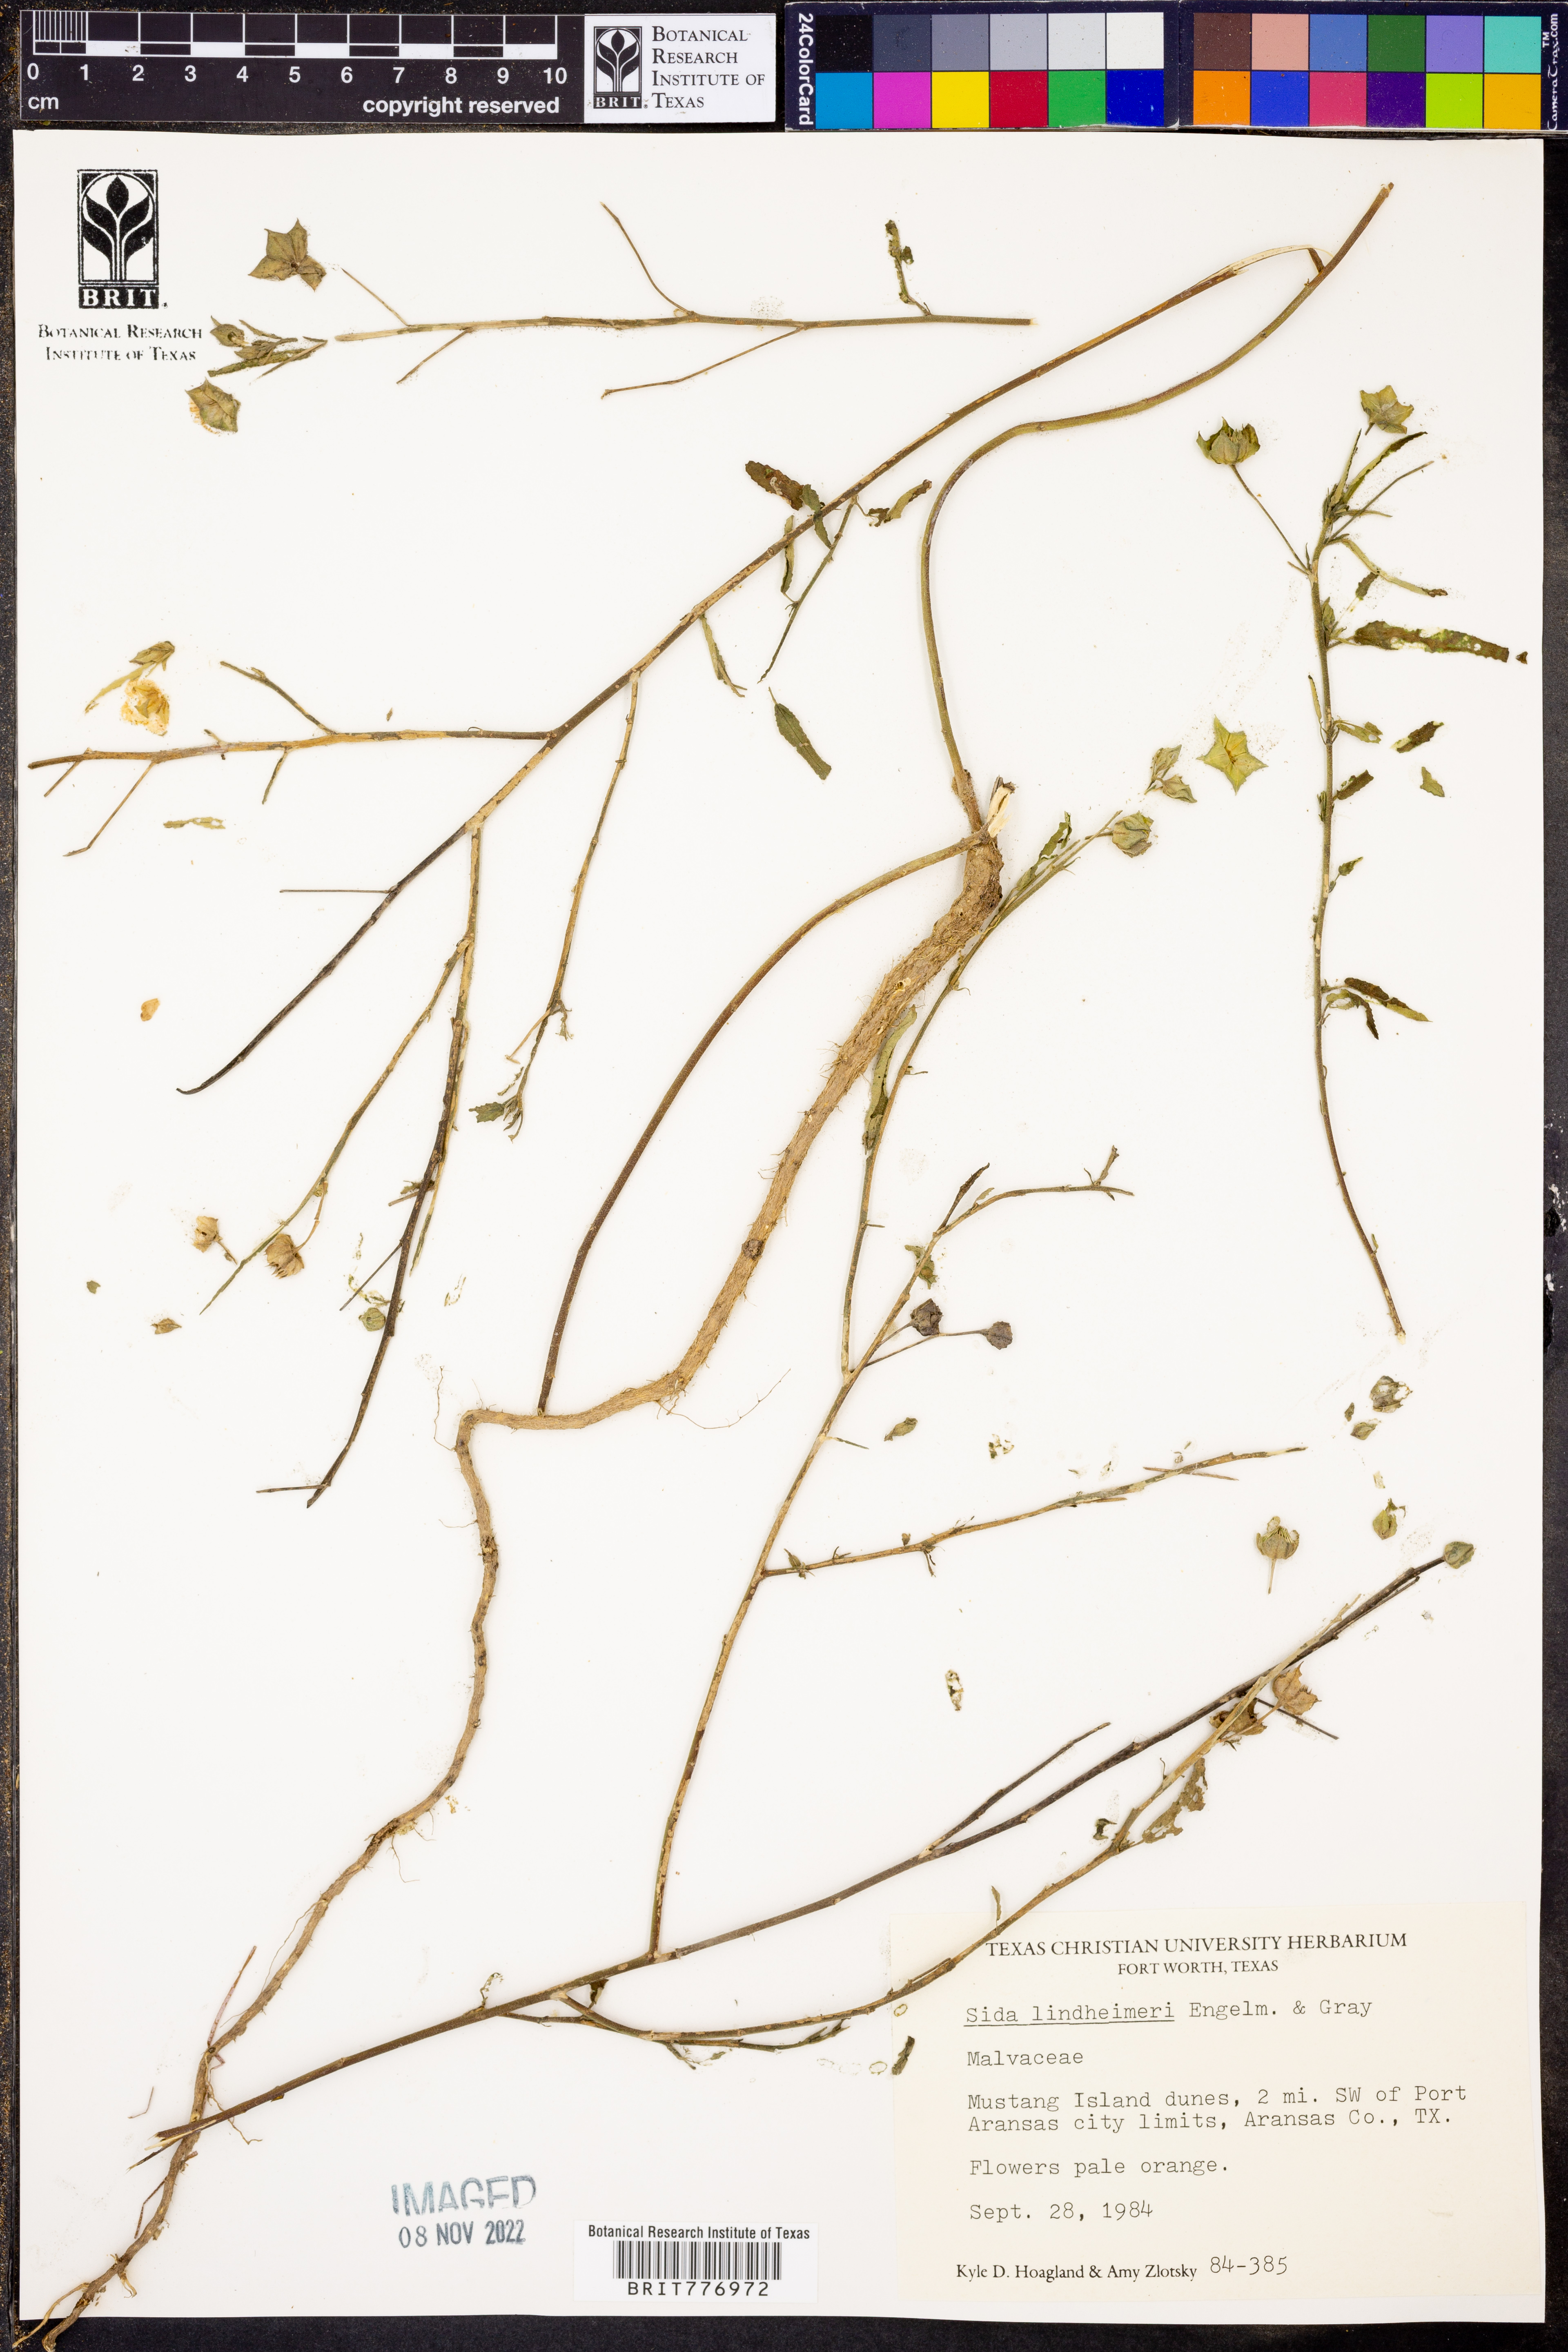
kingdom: Plantae
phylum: Tracheophyta
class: Magnoliopsida
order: Malvales
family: Malvaceae
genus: Sida
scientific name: Sida lindheimeri
